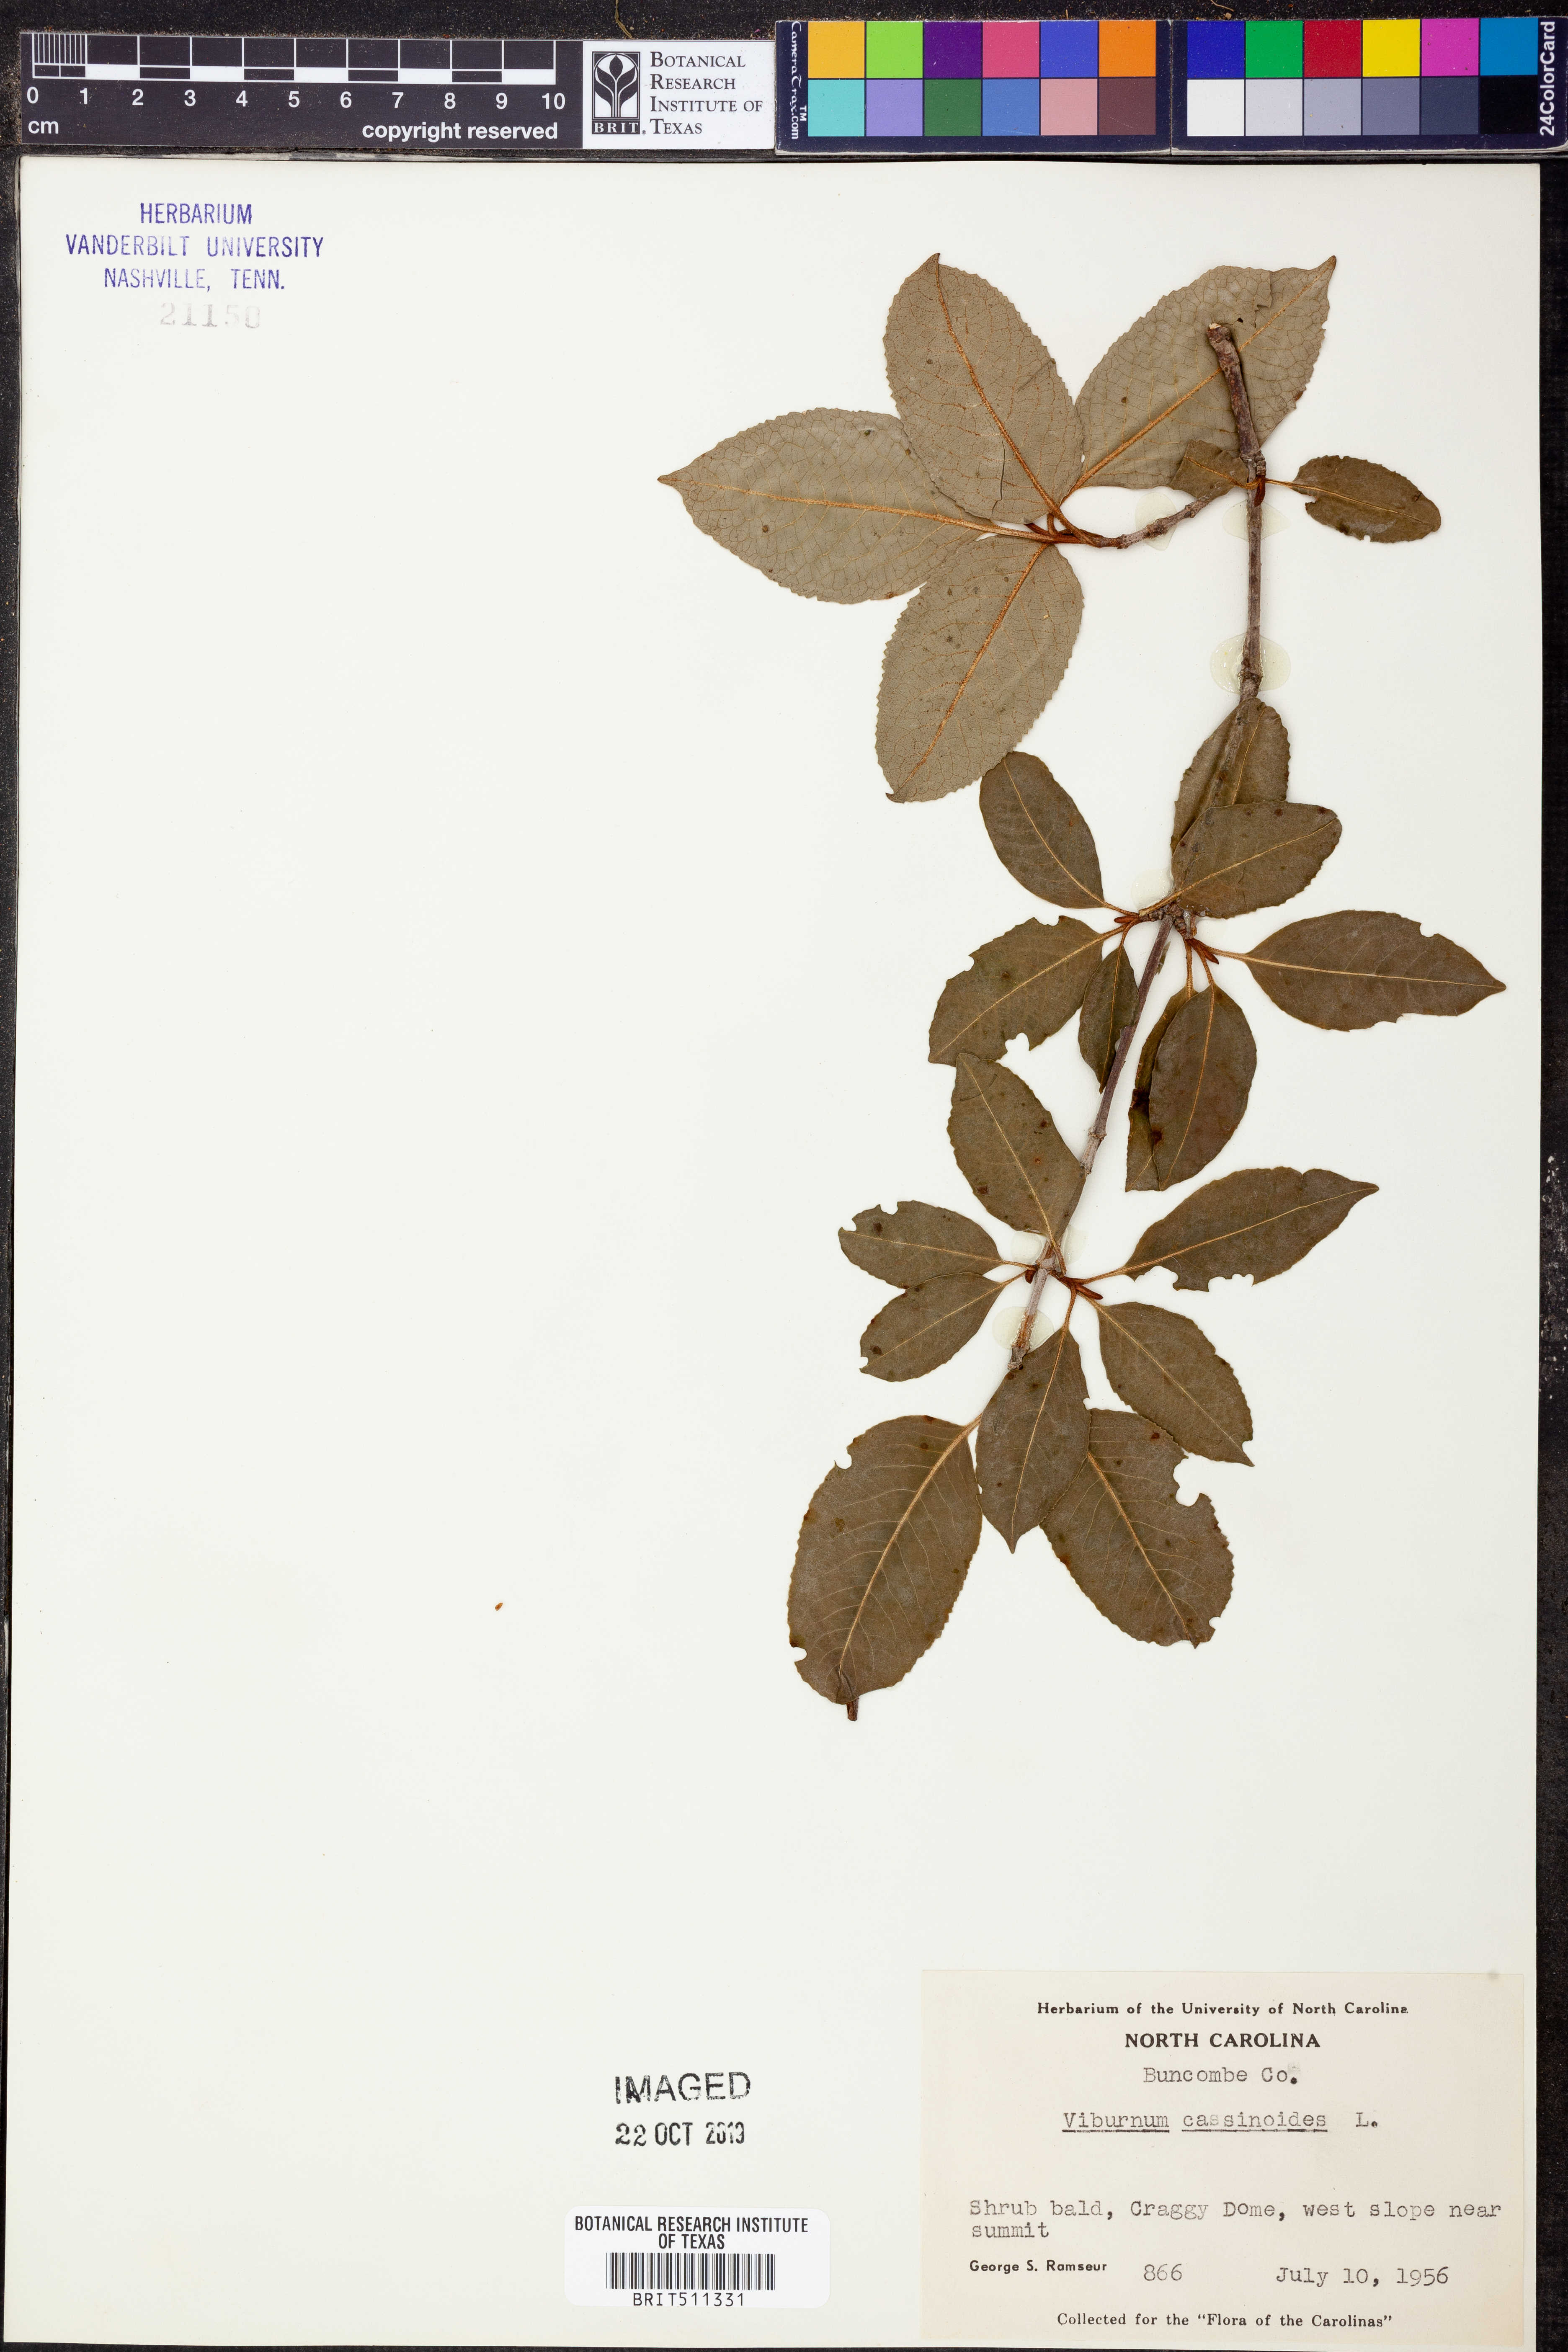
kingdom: Plantae
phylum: Tracheophyta
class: Magnoliopsida
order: Dipsacales
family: Viburnaceae
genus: Viburnum
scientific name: Viburnum cassinoides
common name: Swamp haw
